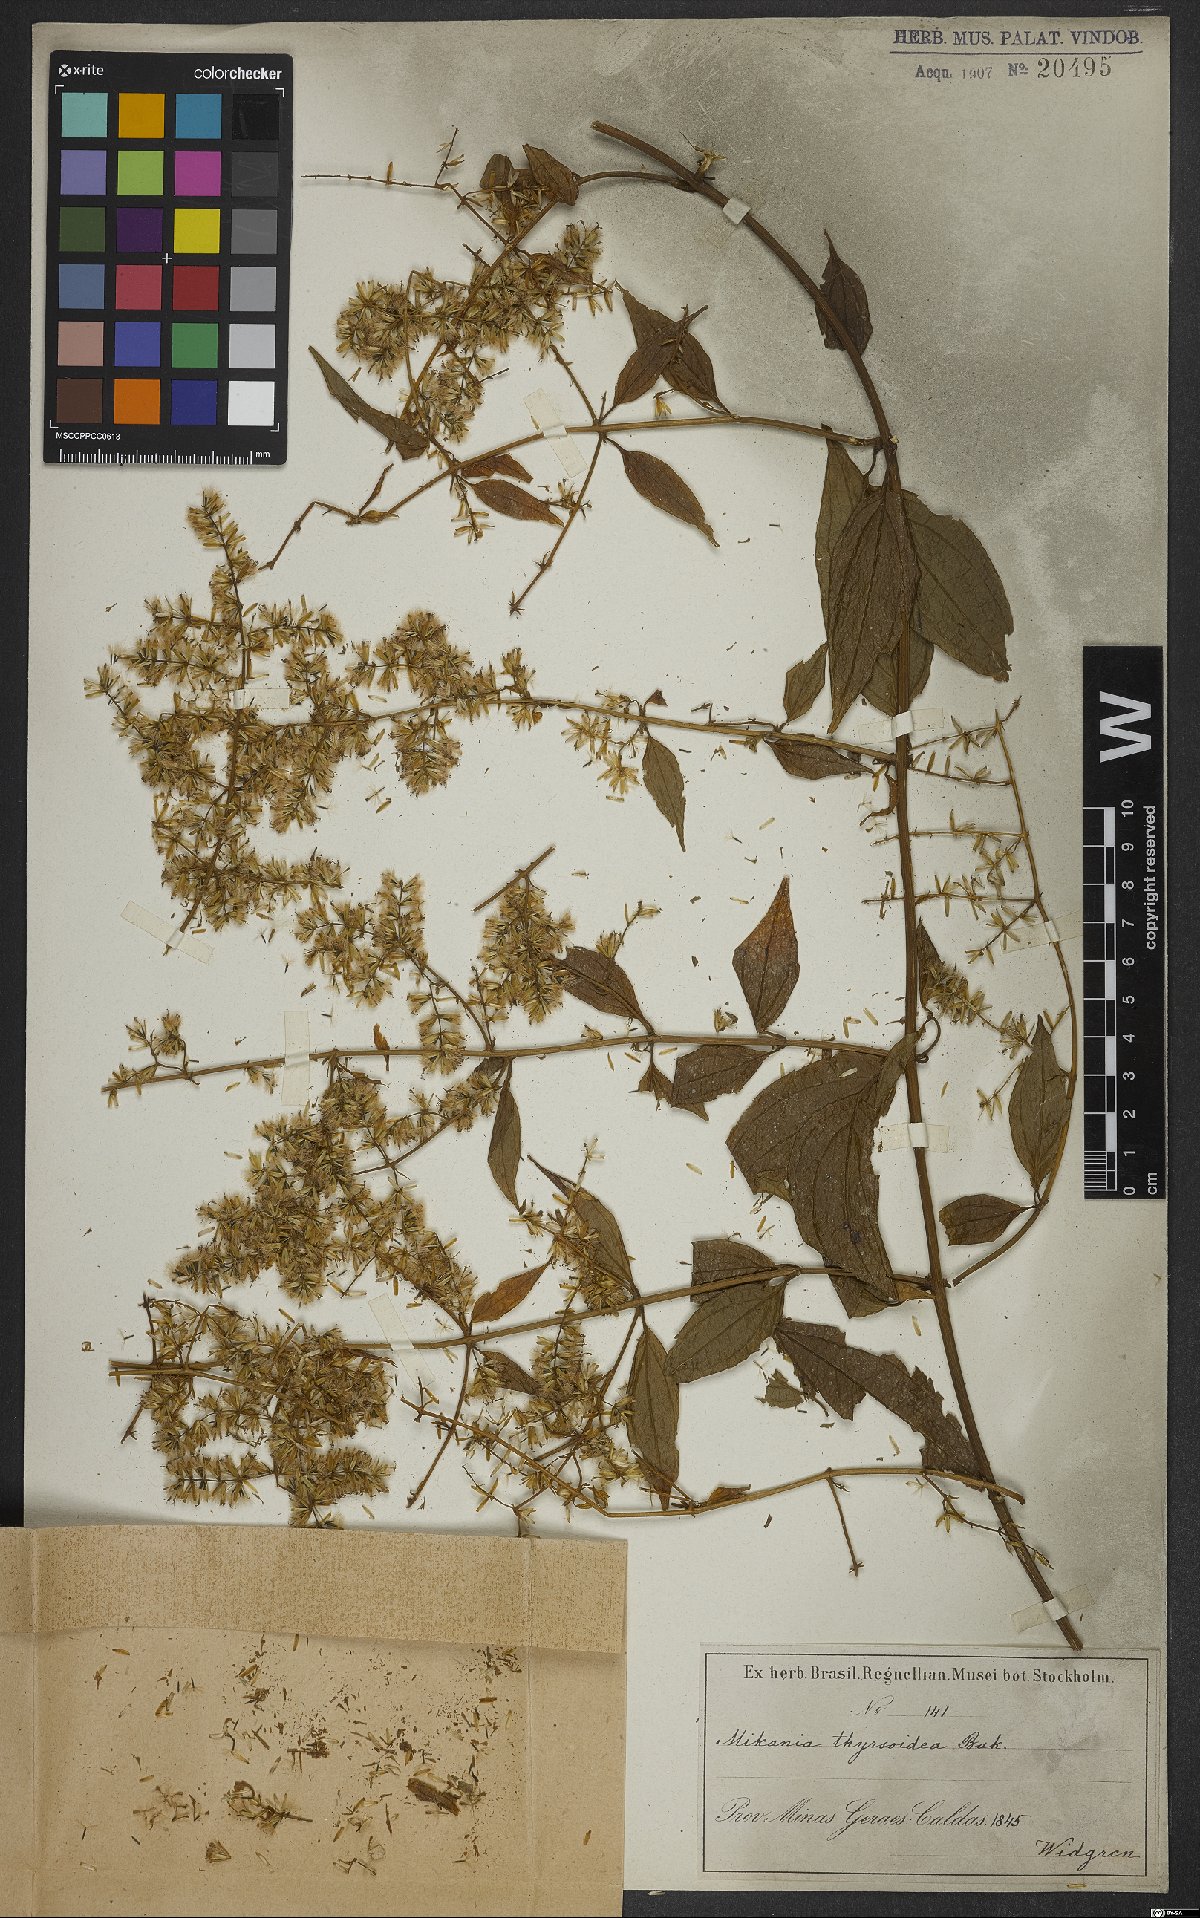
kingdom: Plantae
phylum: Tracheophyta
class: Magnoliopsida
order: Asterales
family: Asteraceae
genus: Mikania
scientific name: Mikania thyrsoidea
